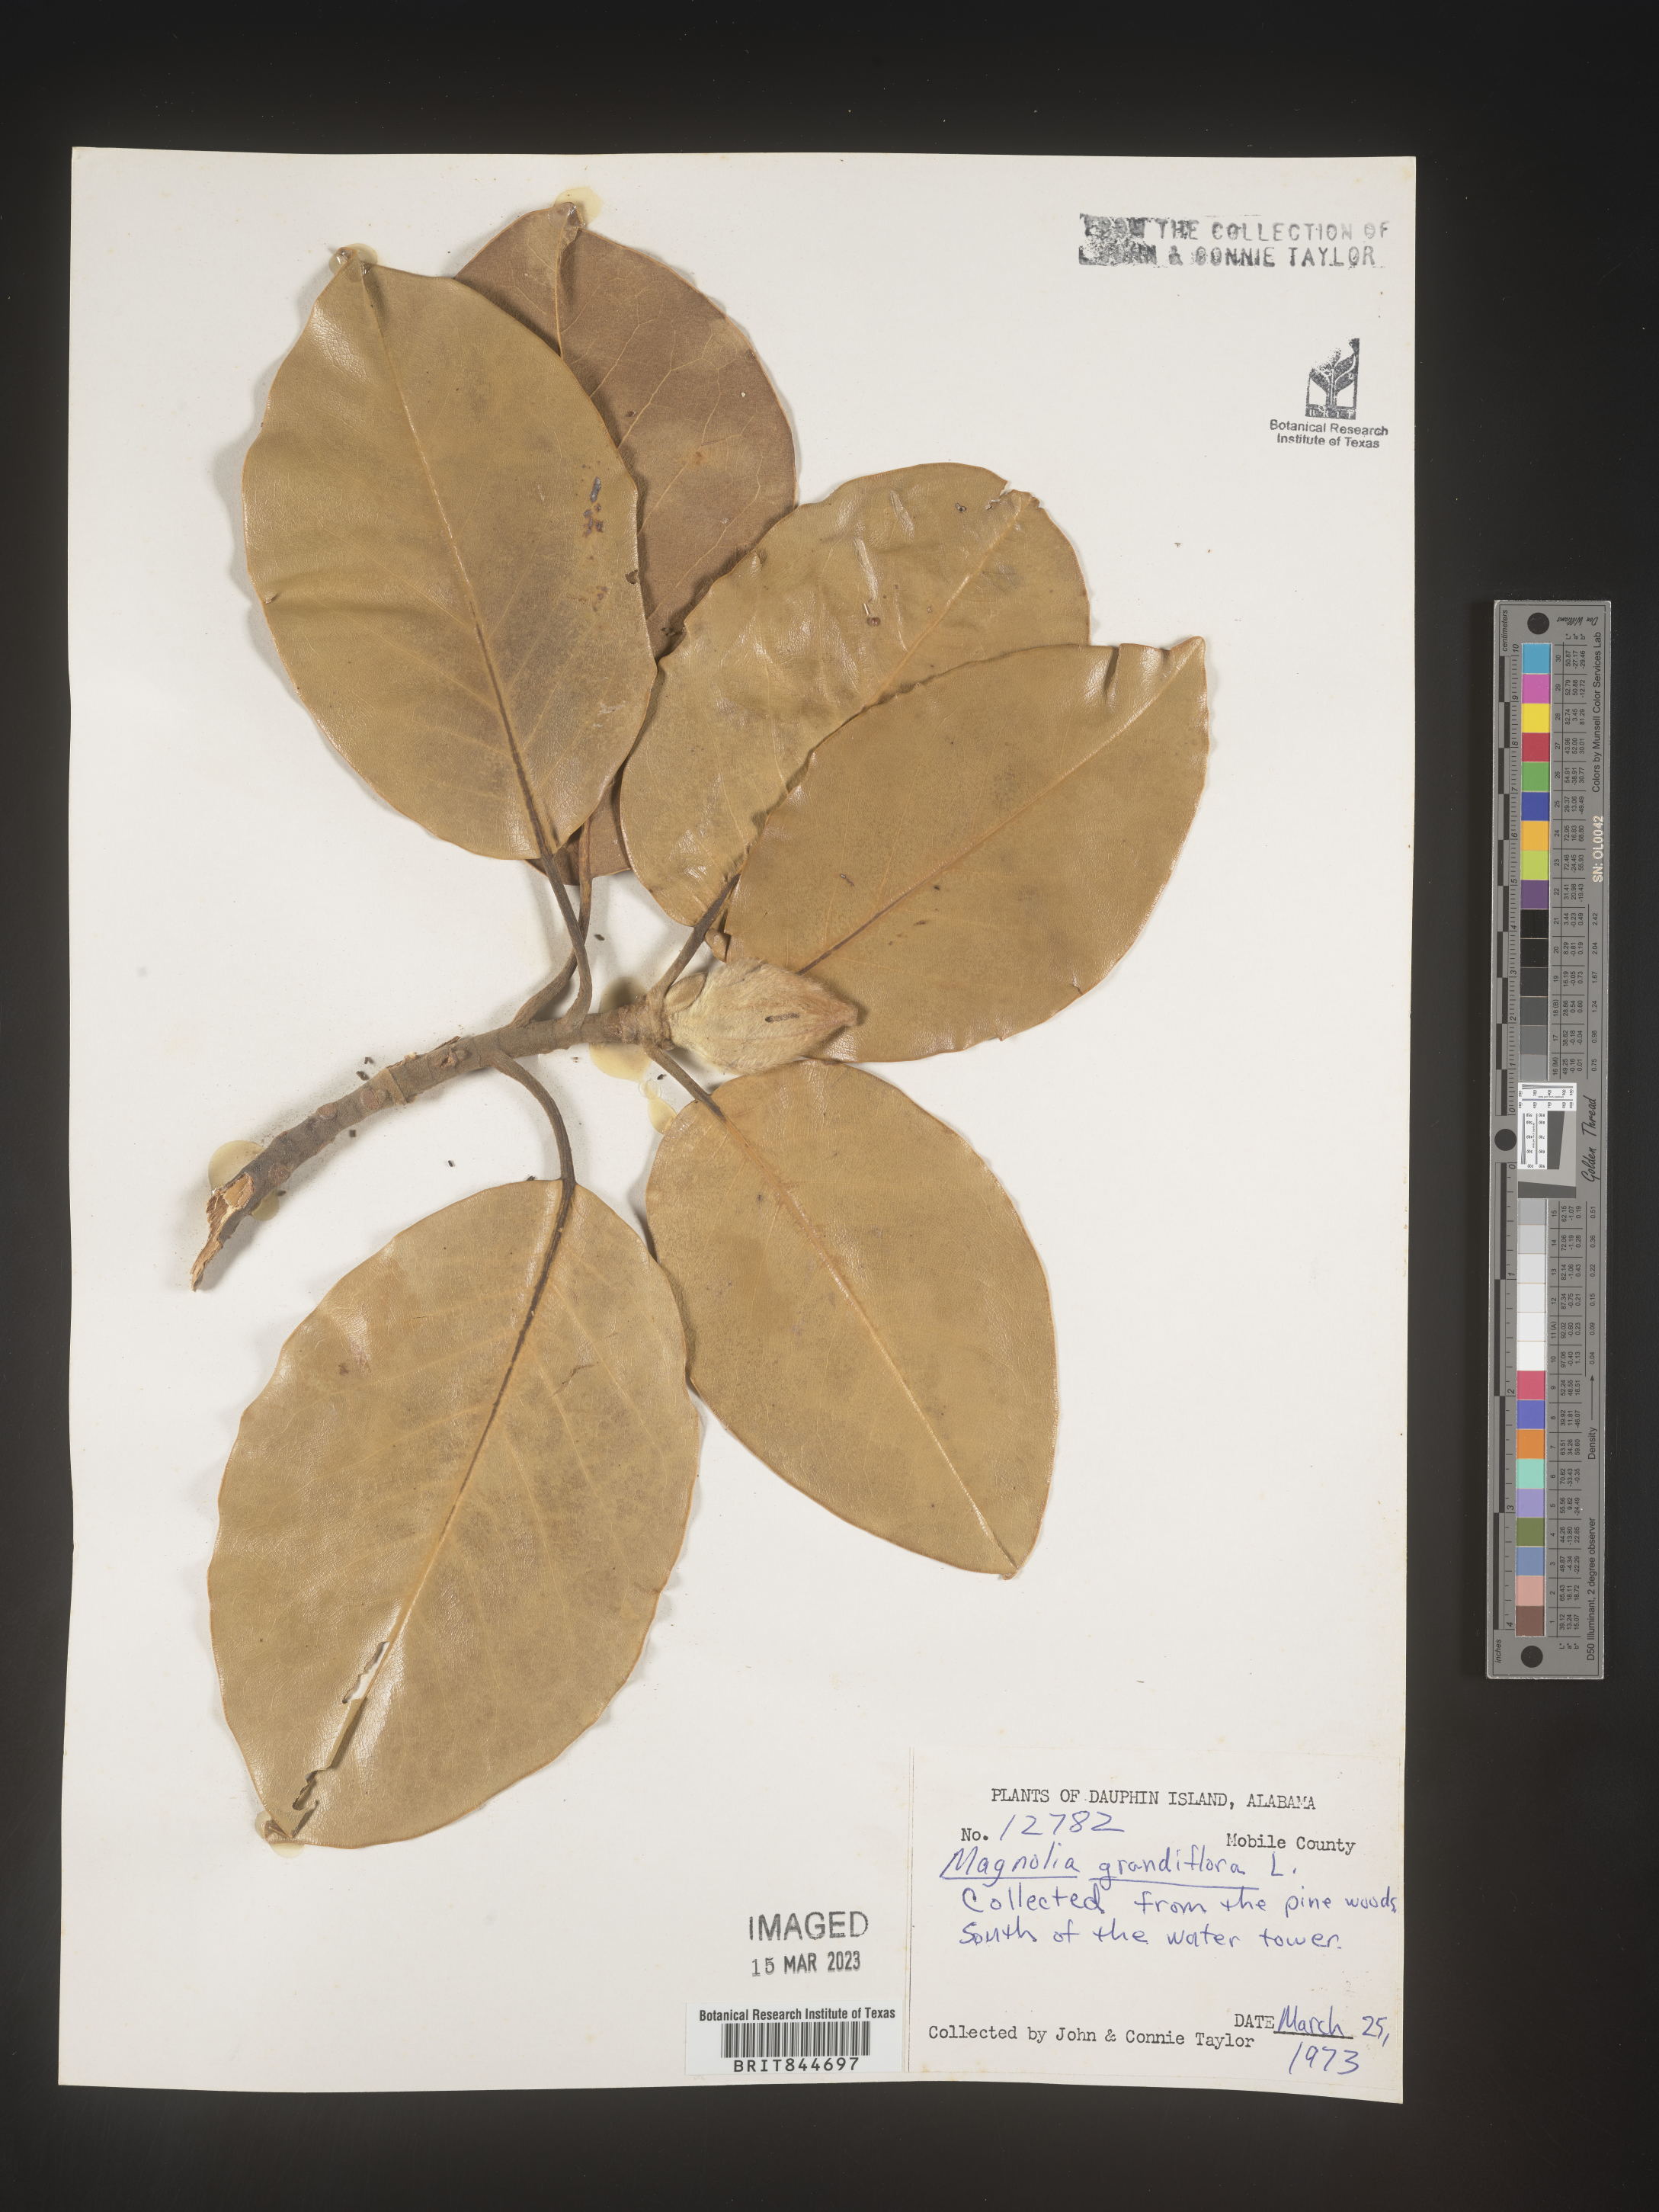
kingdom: Plantae
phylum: Tracheophyta
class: Magnoliopsida
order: Magnoliales
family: Magnoliaceae
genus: Magnolia
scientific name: Magnolia grandiflora
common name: Southern magnolia
